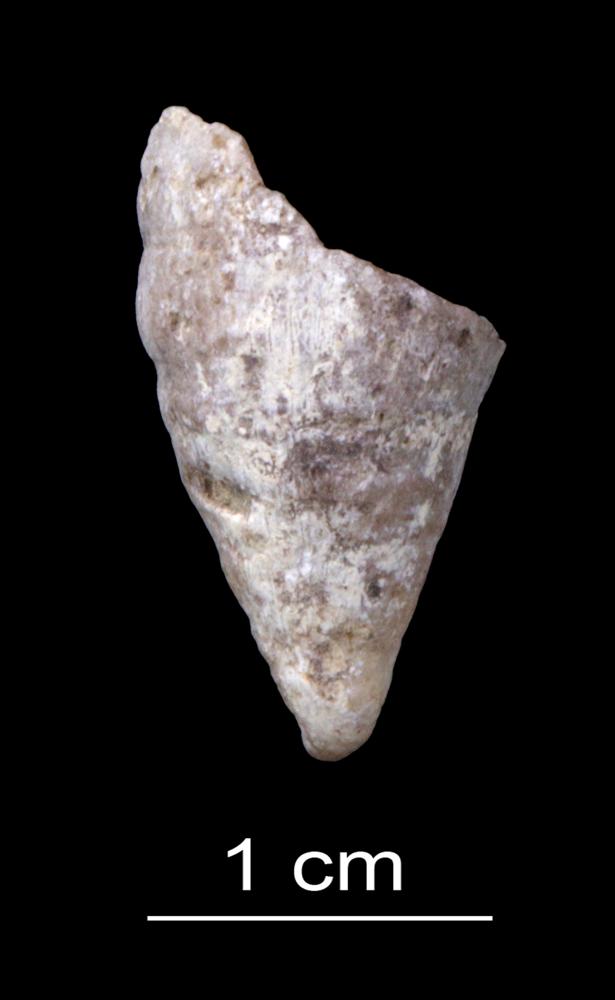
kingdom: Animalia
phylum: Cnidaria
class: Anthozoa
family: Halliidae
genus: Aulacophyllum
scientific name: Aulacophyllum
